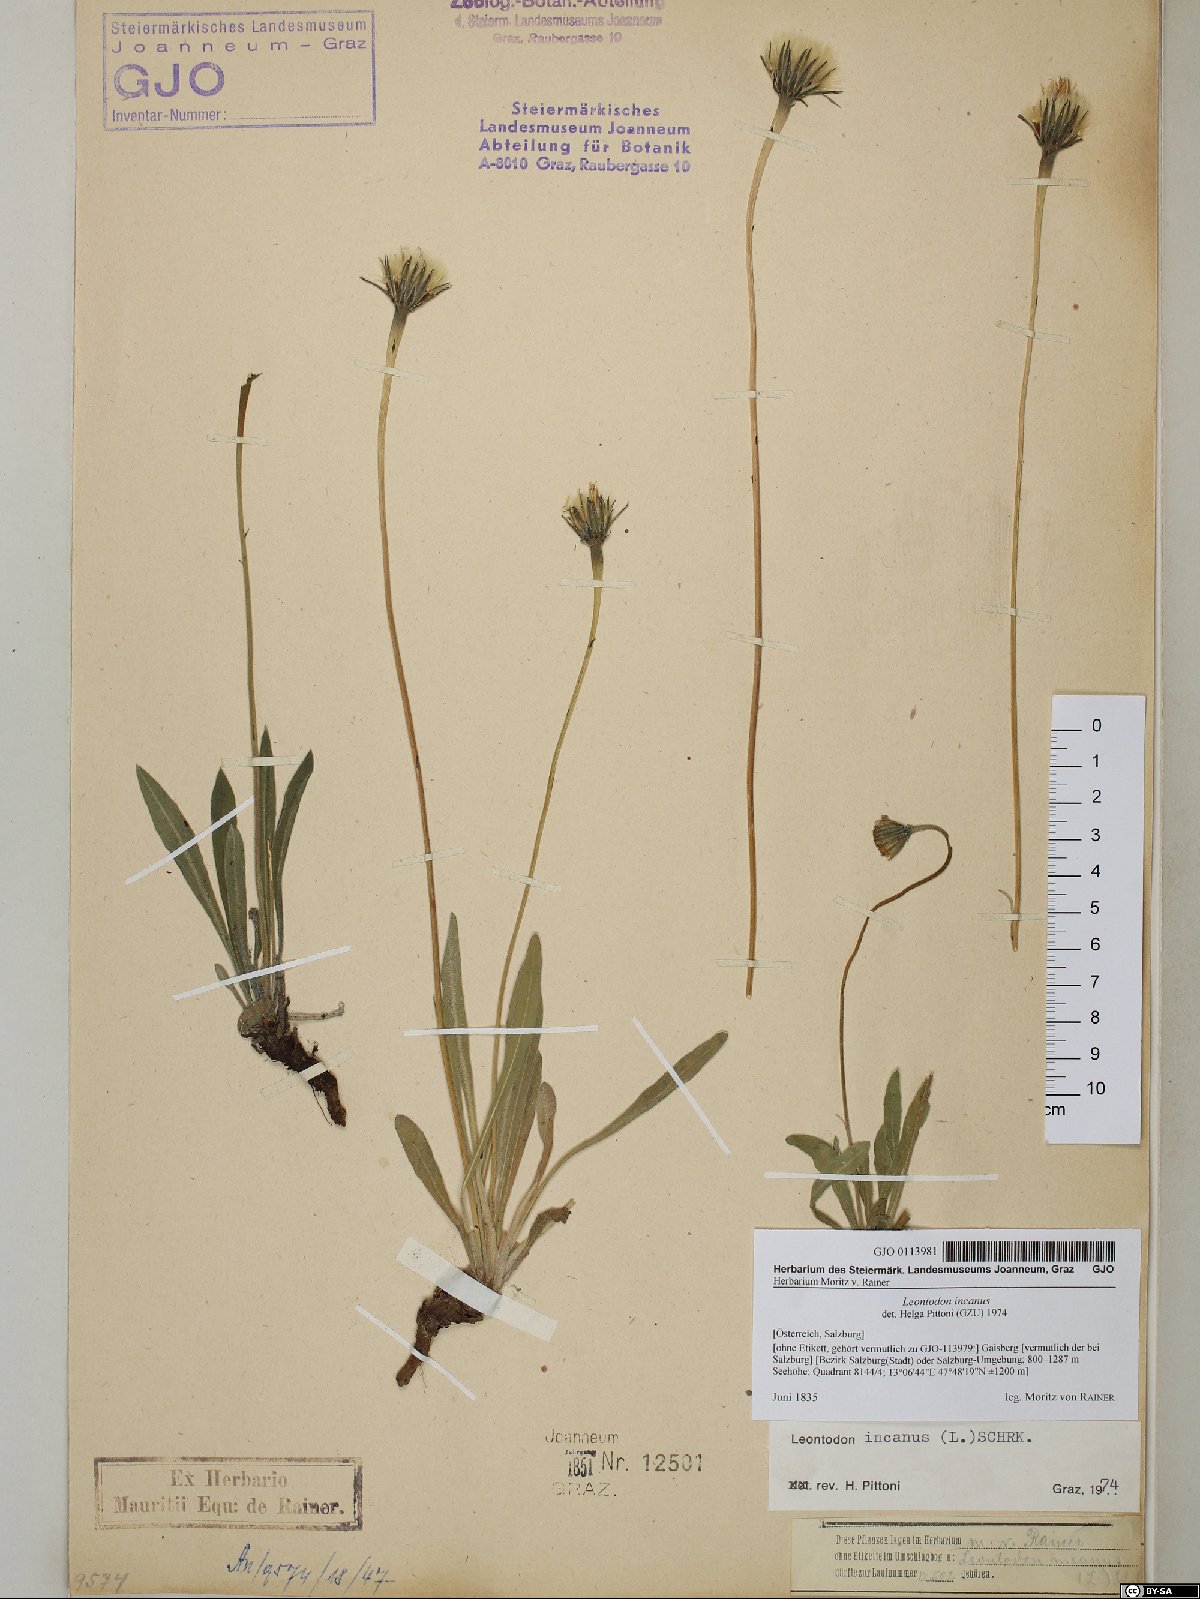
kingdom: Plantae
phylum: Tracheophyta
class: Magnoliopsida
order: Asterales
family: Asteraceae
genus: Leontodon
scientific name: Leontodon incanus
